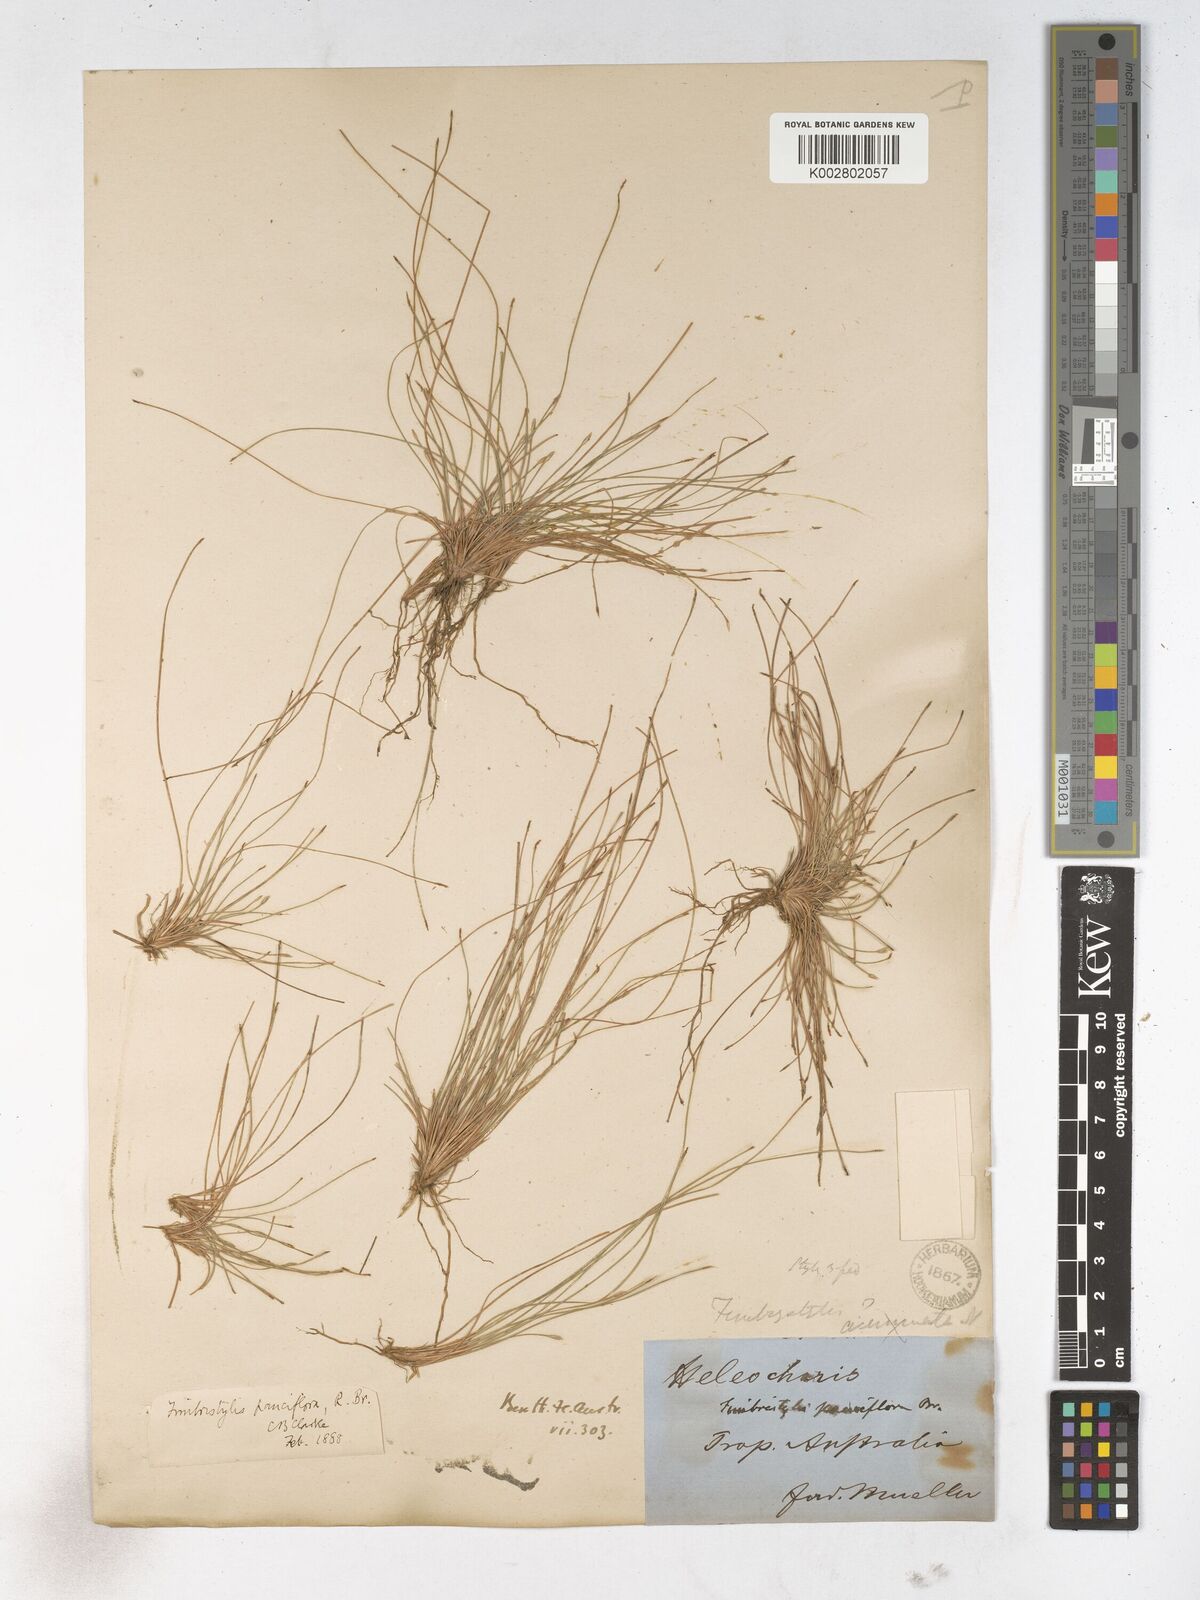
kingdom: Plantae
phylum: Tracheophyta
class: Liliopsida
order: Poales
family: Cyperaceae
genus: Fimbristylis
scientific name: Fimbristylis pauciflora
